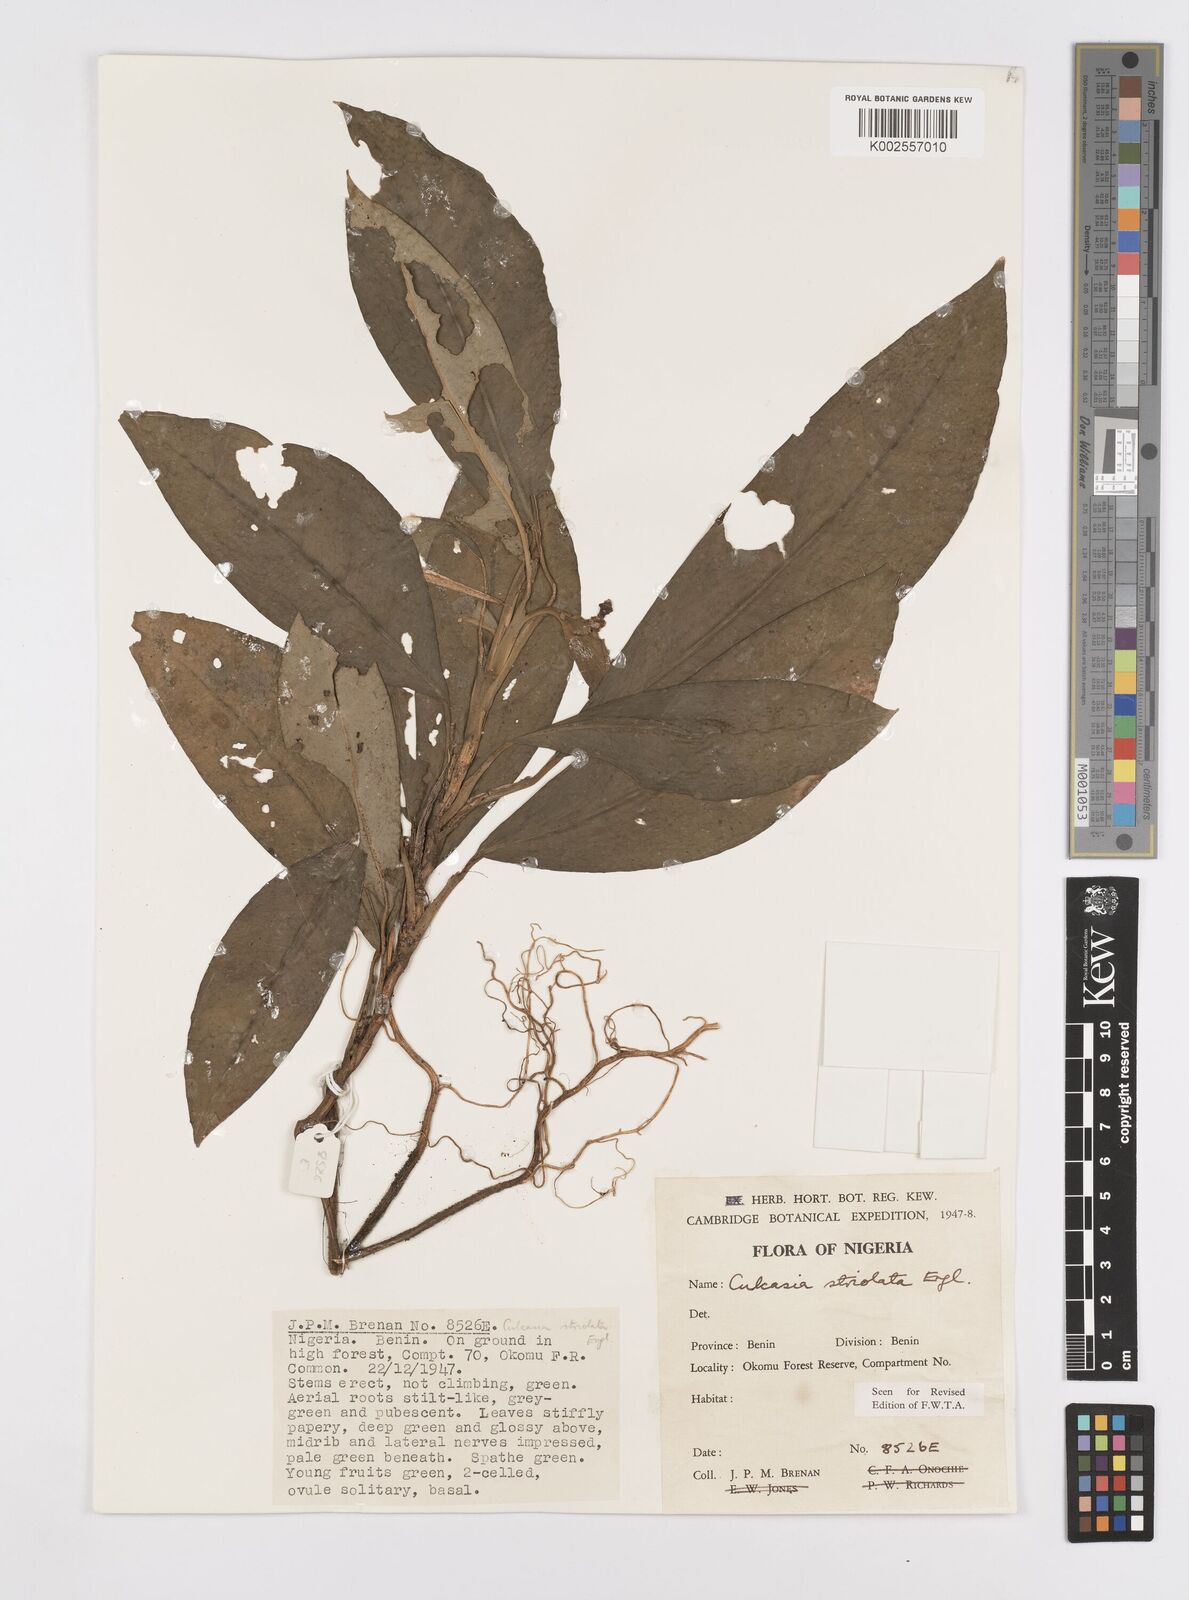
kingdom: Plantae
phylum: Tracheophyta
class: Liliopsida
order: Alismatales
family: Araceae
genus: Culcasia
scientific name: Culcasia striolata
